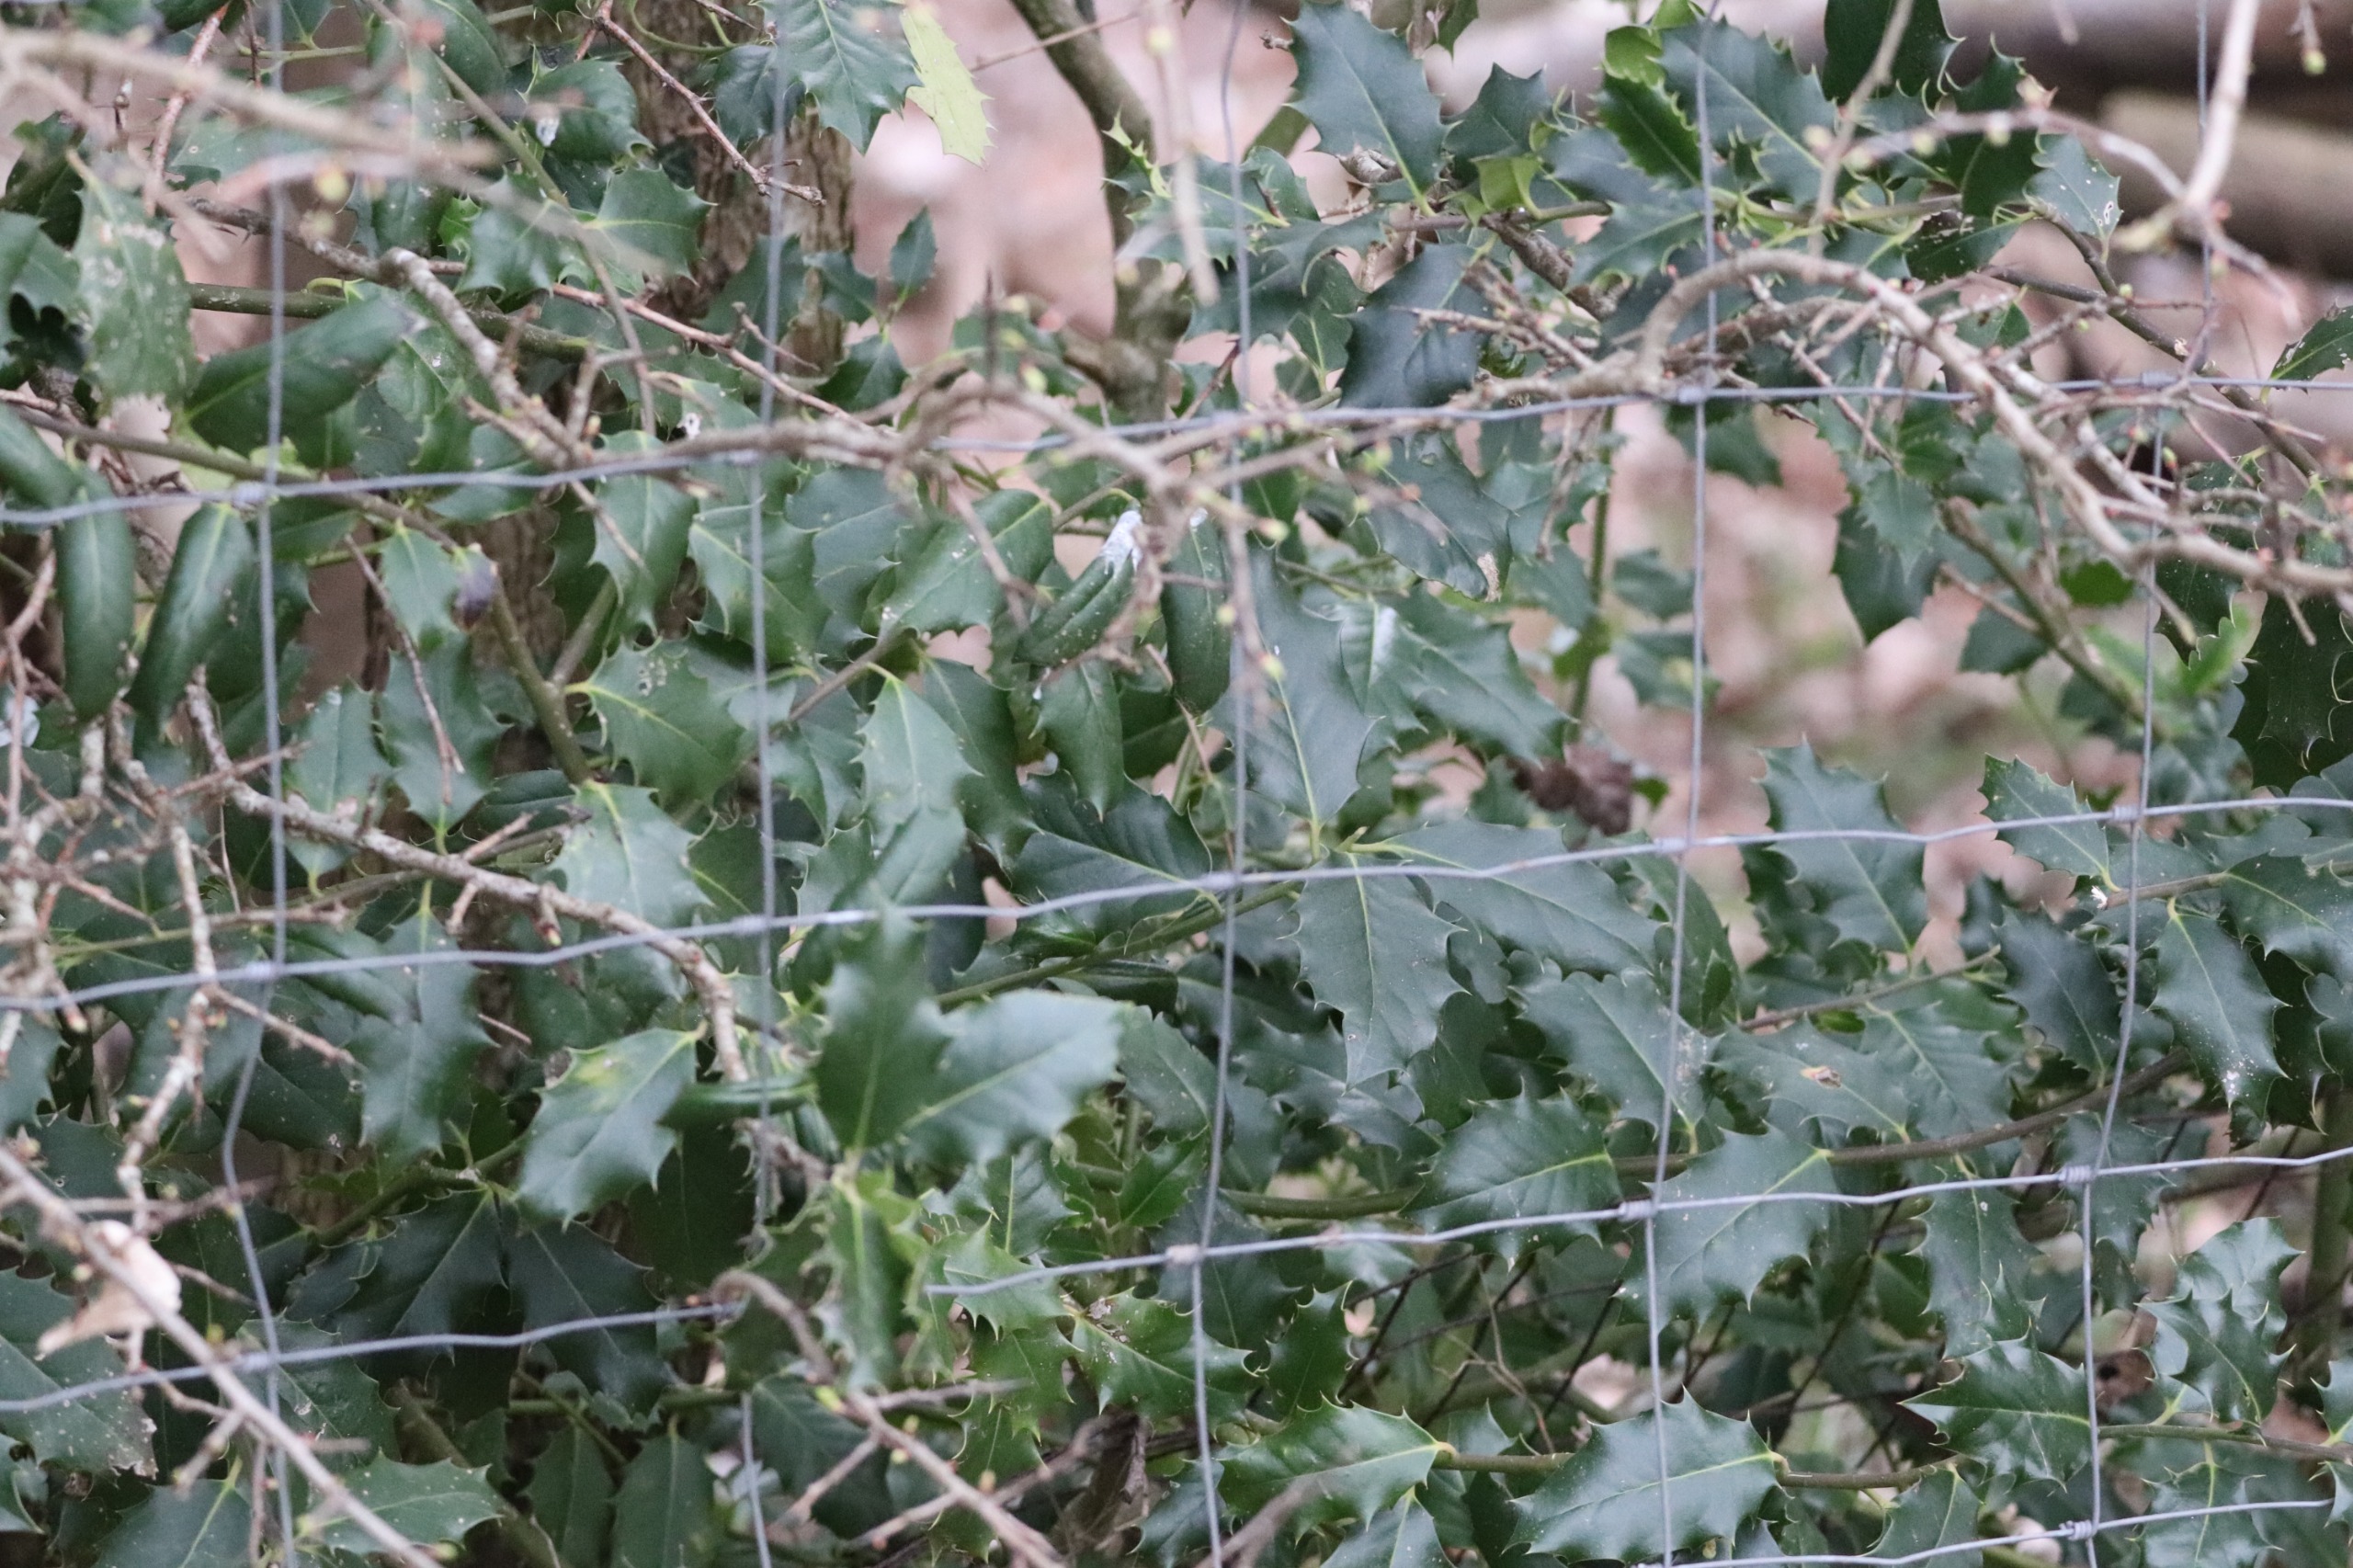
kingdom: Plantae
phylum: Tracheophyta
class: Magnoliopsida
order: Aquifoliales
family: Aquifoliaceae
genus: Ilex
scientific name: Ilex aquifolium
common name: Kristtorn
